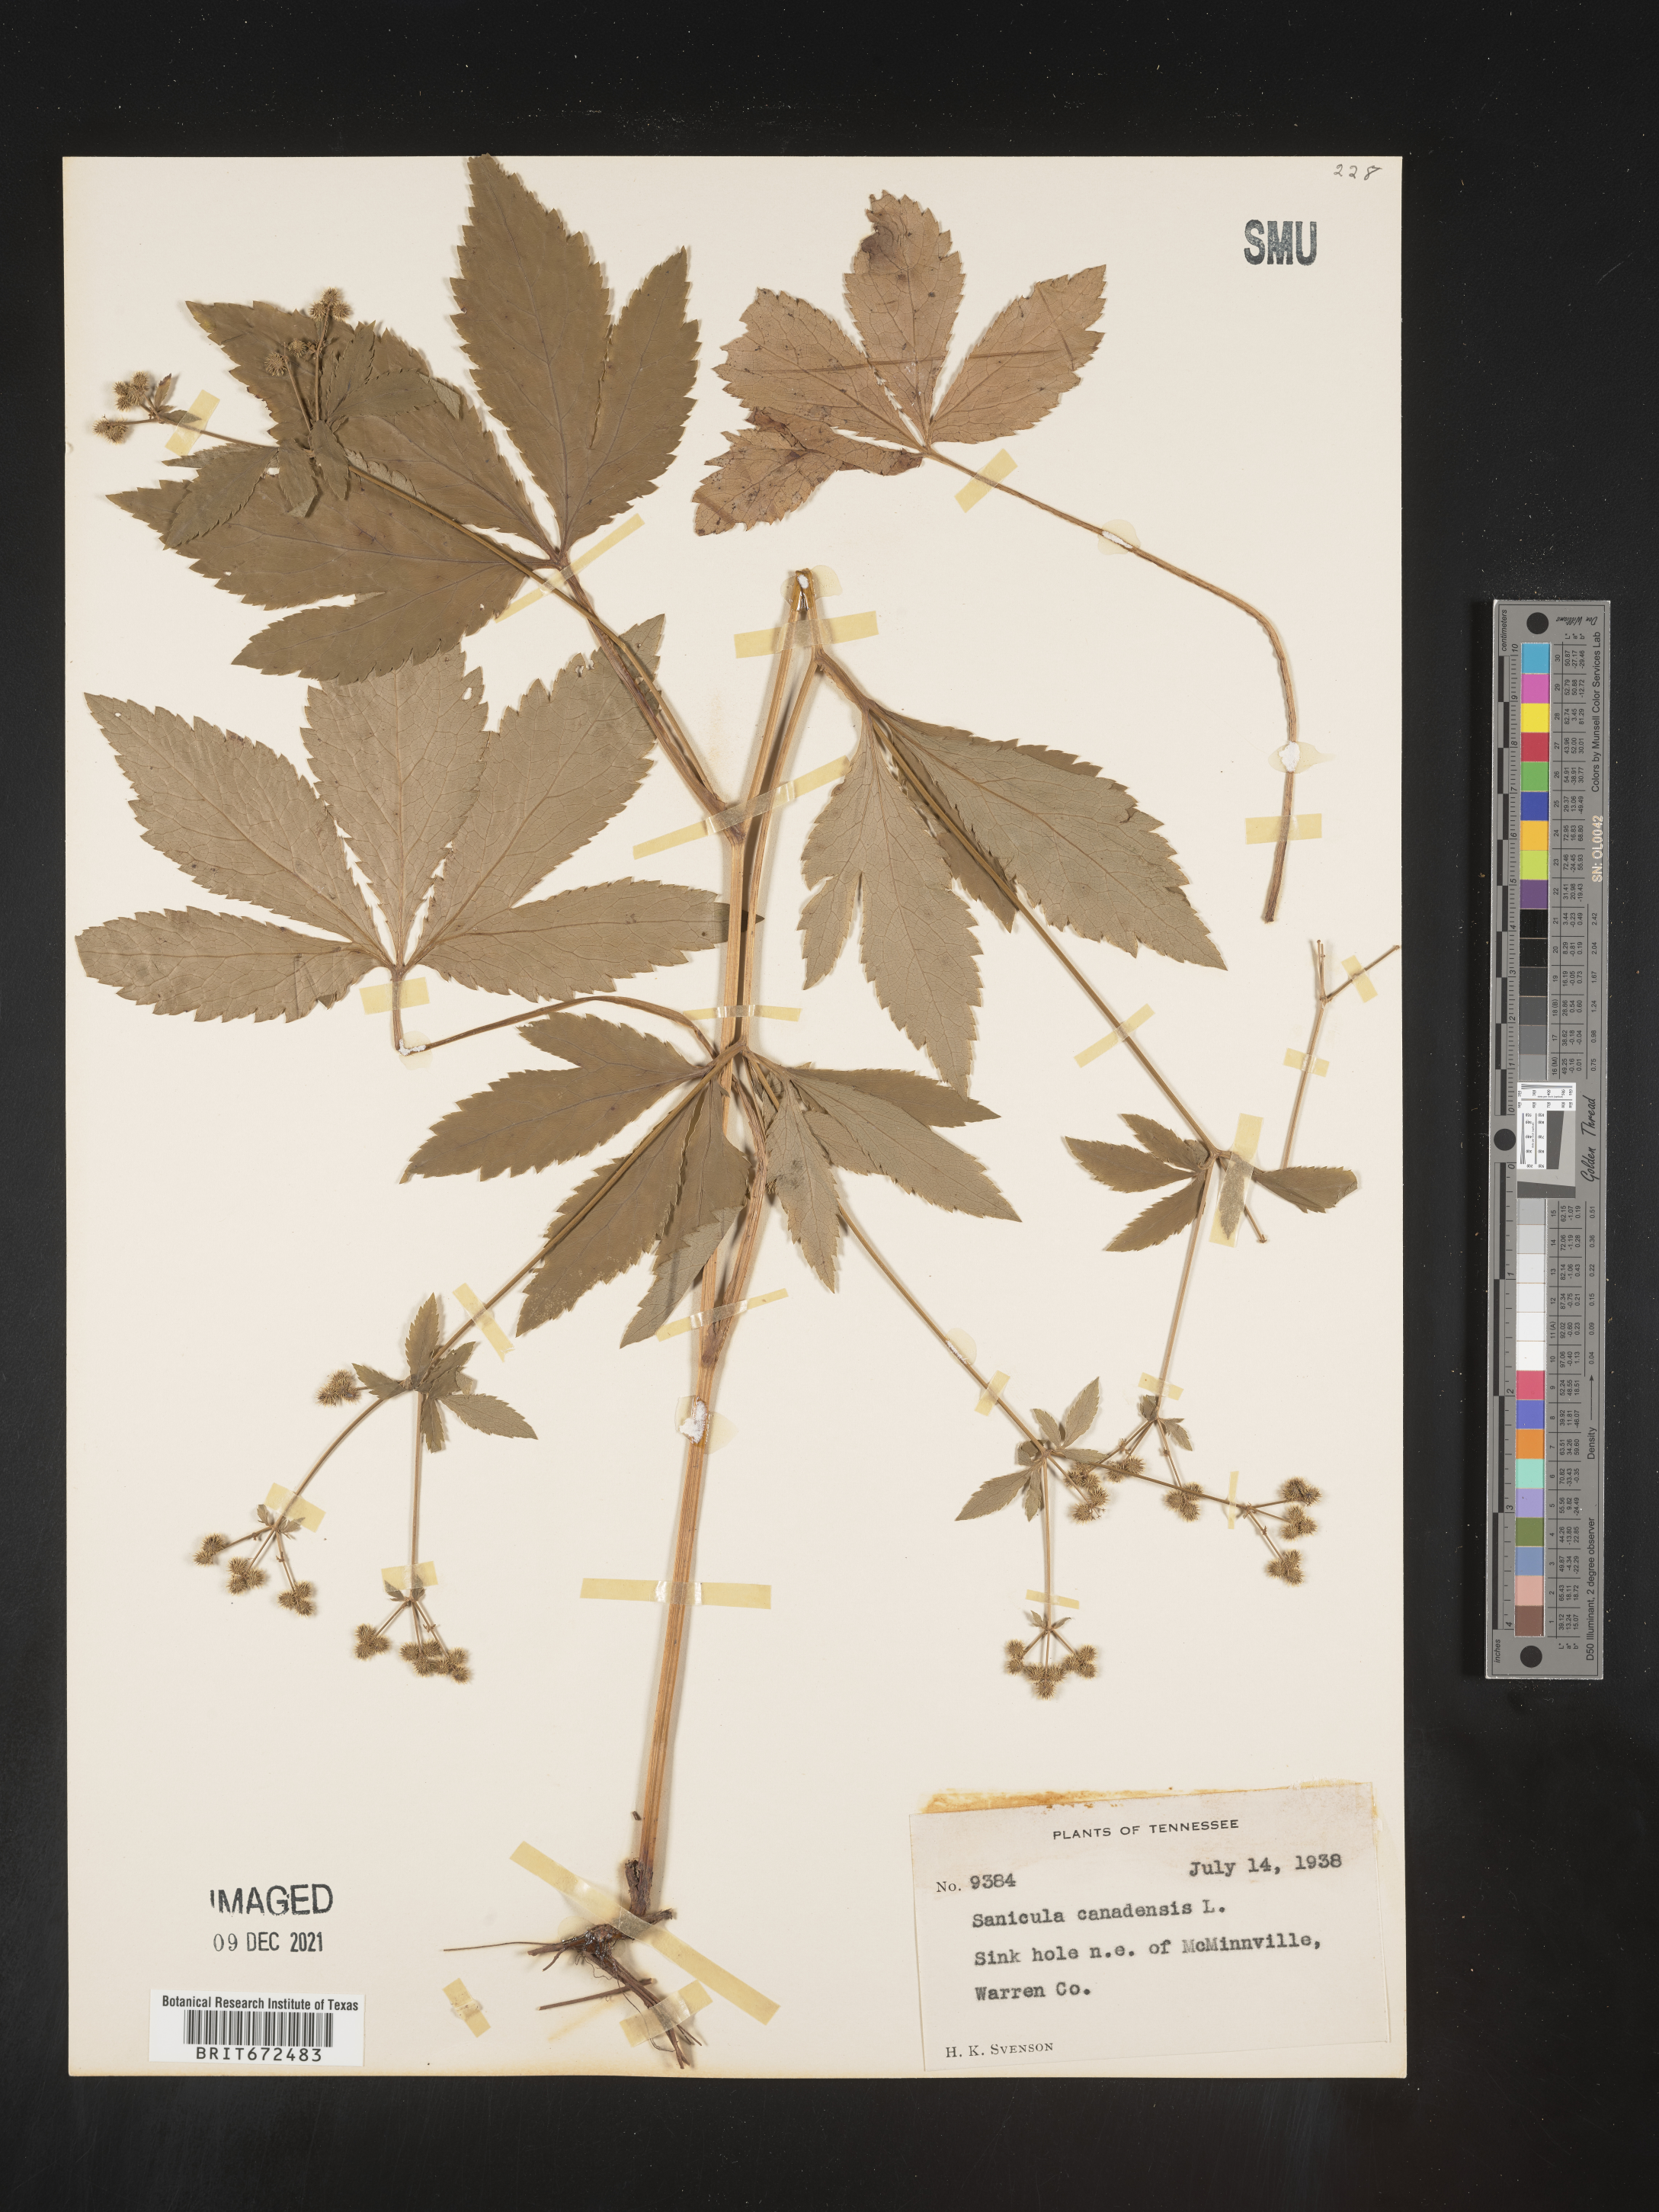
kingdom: Plantae
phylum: Tracheophyta
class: Magnoliopsida
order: Apiales
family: Apiaceae
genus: Sanicula
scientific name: Sanicula canadensis
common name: Canada sanicle
